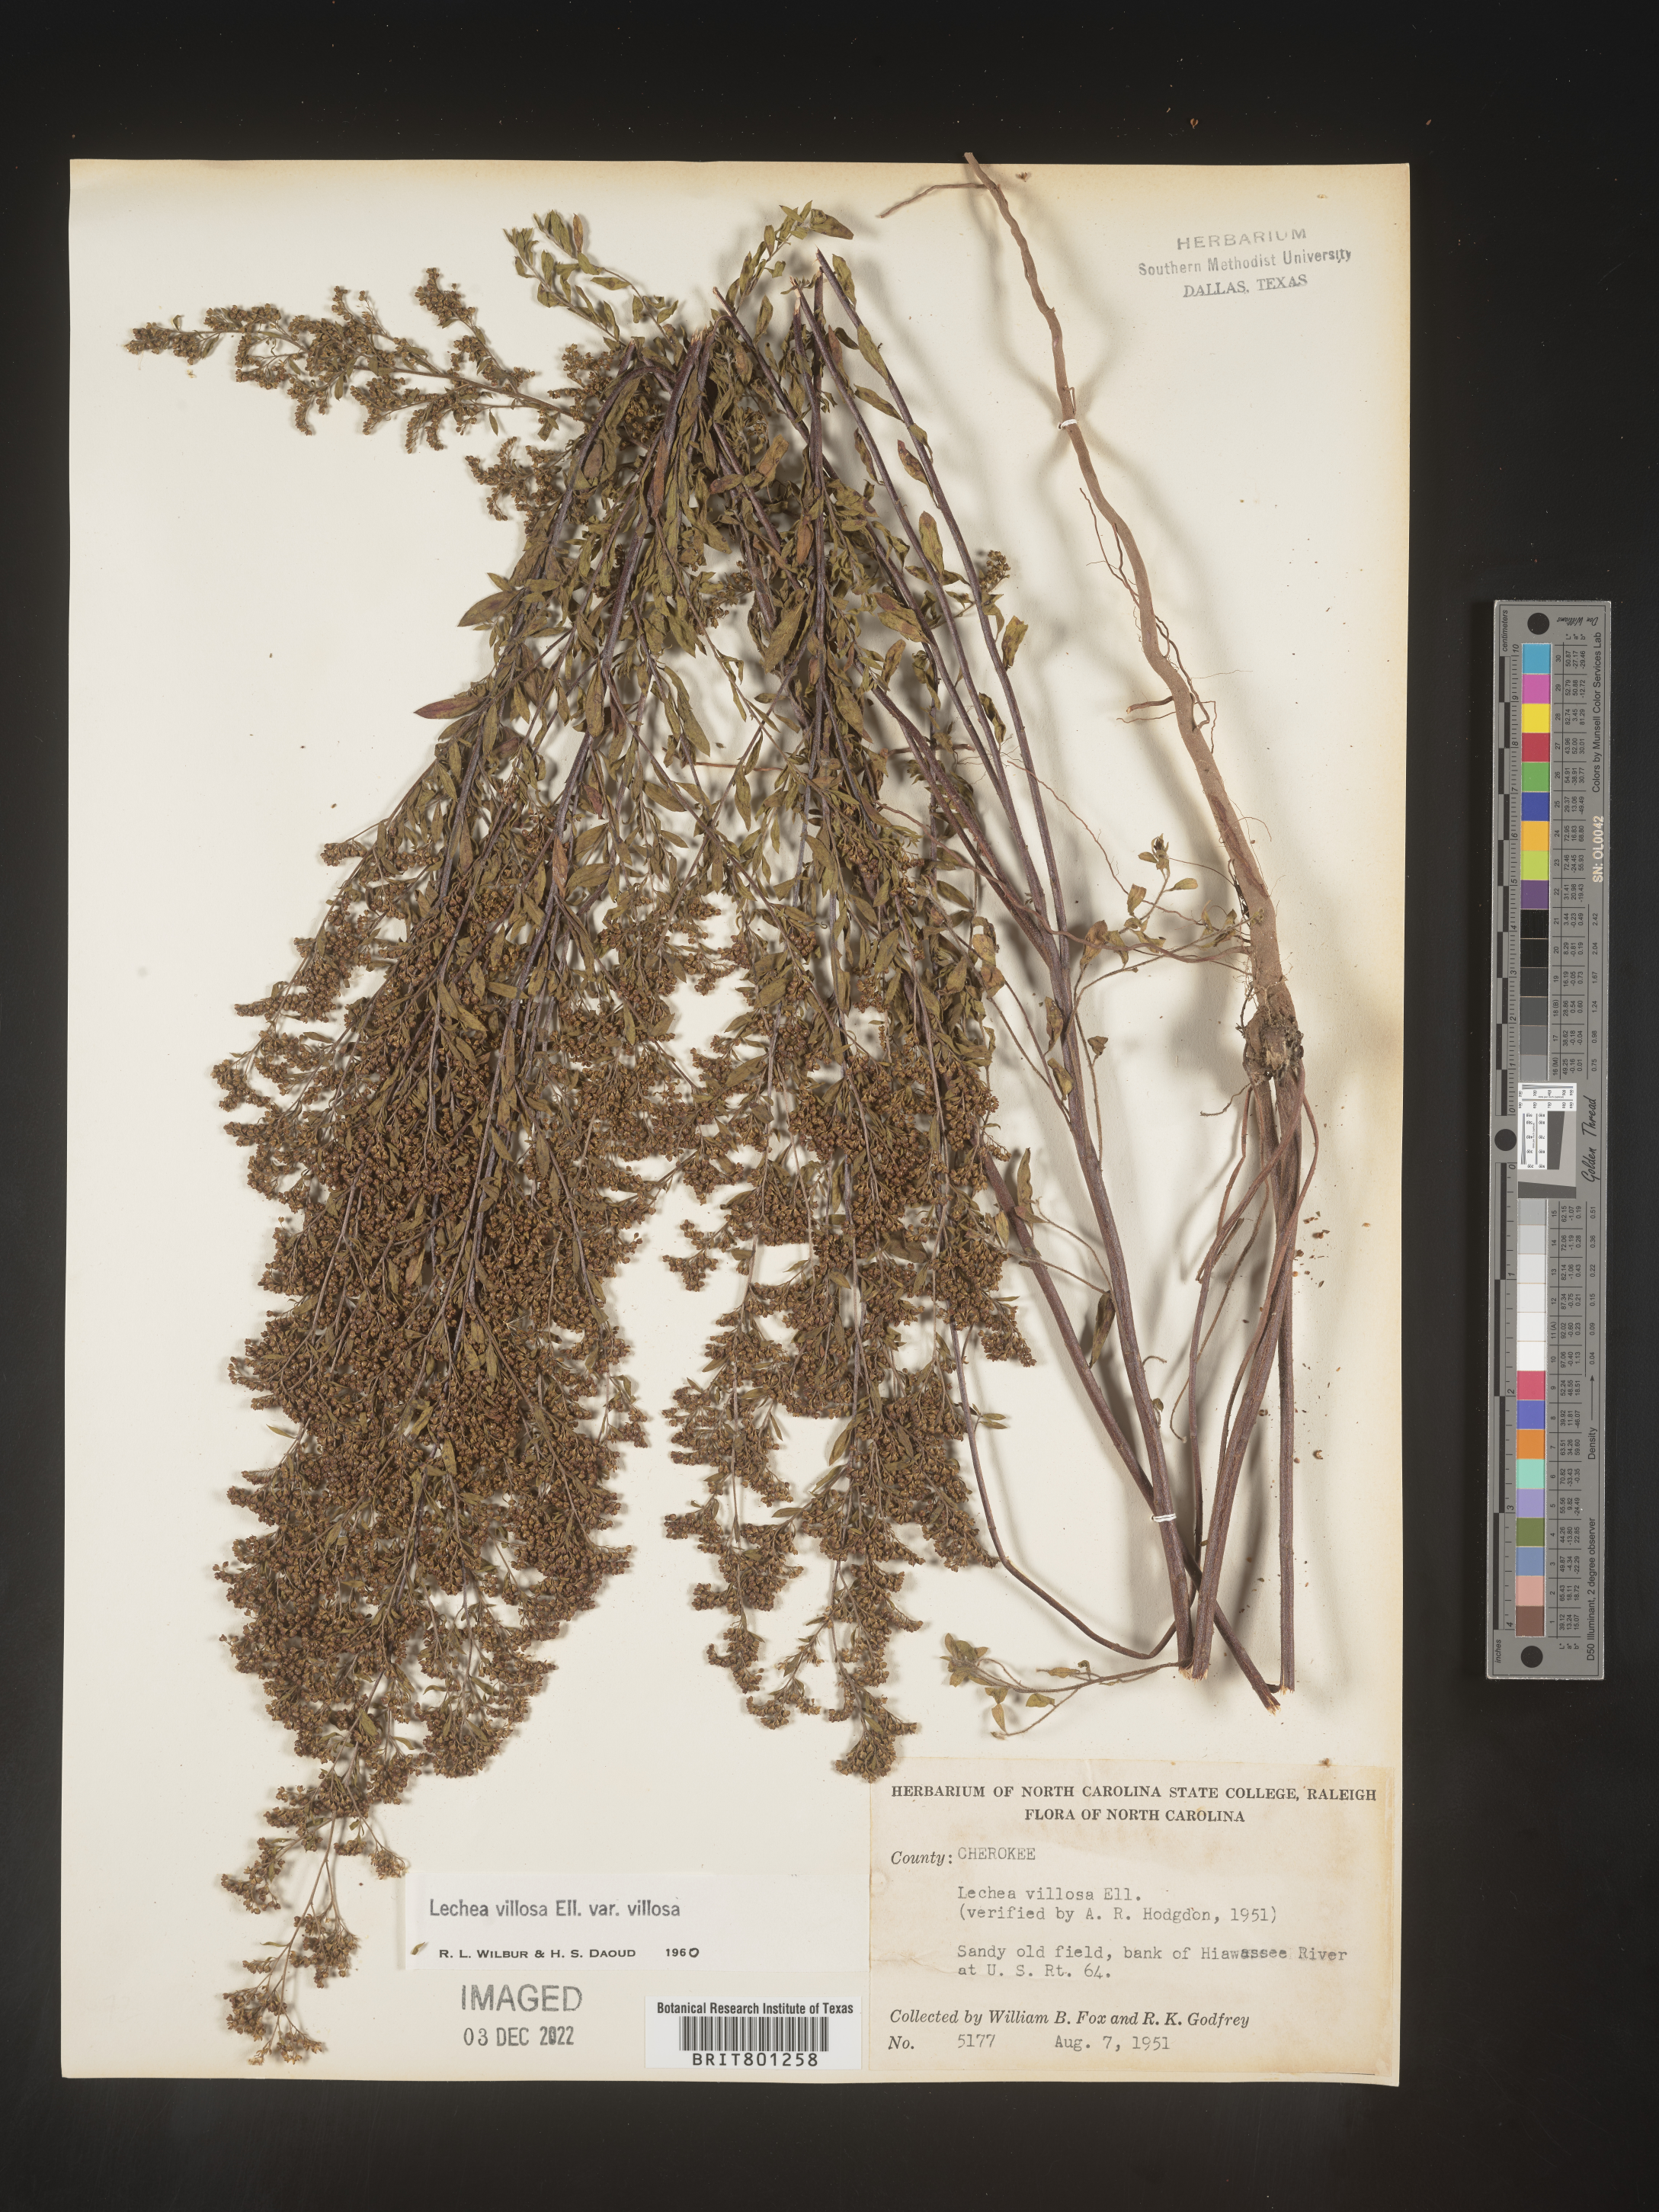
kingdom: Plantae
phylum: Tracheophyta
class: Magnoliopsida
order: Malvales
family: Cistaceae
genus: Lechea
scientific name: Lechea mucronata
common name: Hairy pinweed
